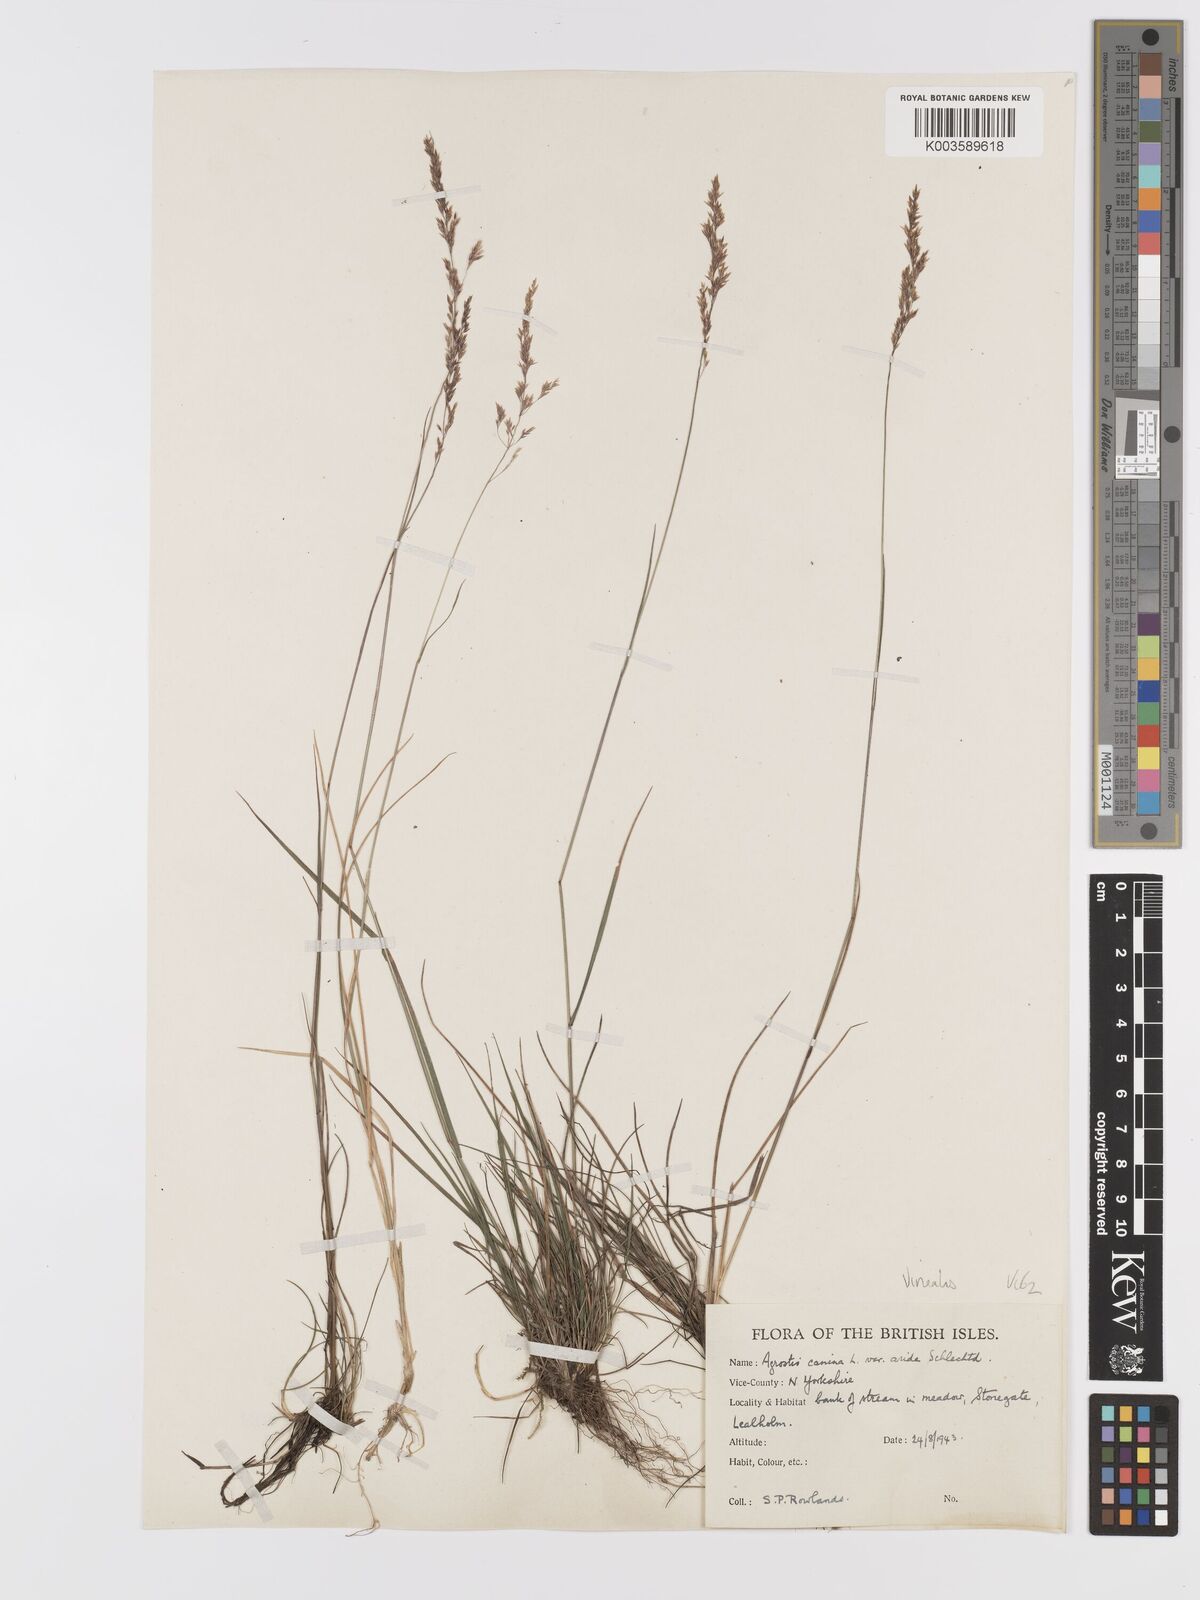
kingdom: Plantae
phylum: Tracheophyta
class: Liliopsida
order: Poales
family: Poaceae
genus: Agrostis
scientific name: Agrostis
